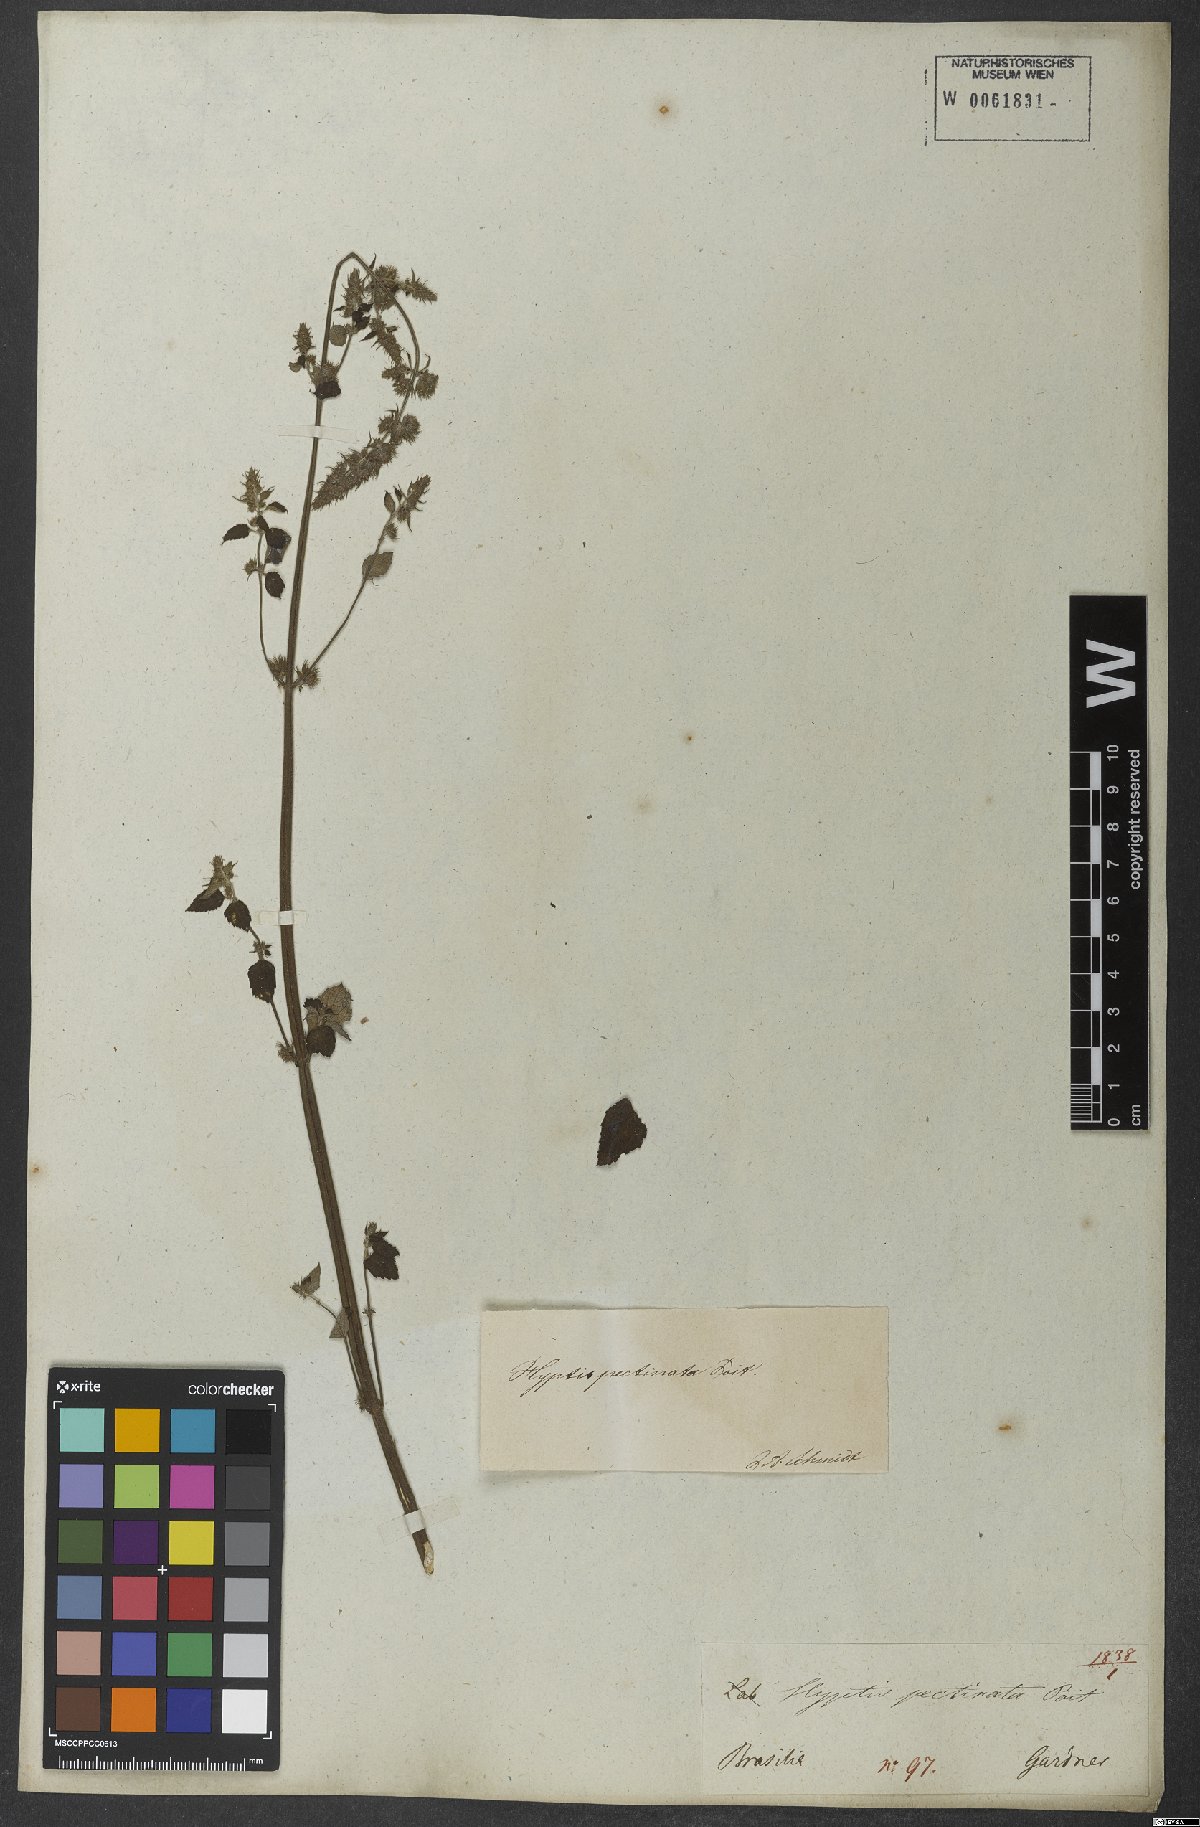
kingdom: Plantae
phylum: Tracheophyta
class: Magnoliopsida
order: Lamiales
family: Lamiaceae
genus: Mesosphaerum
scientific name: Mesosphaerum pectinatum
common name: Comb hyptis
